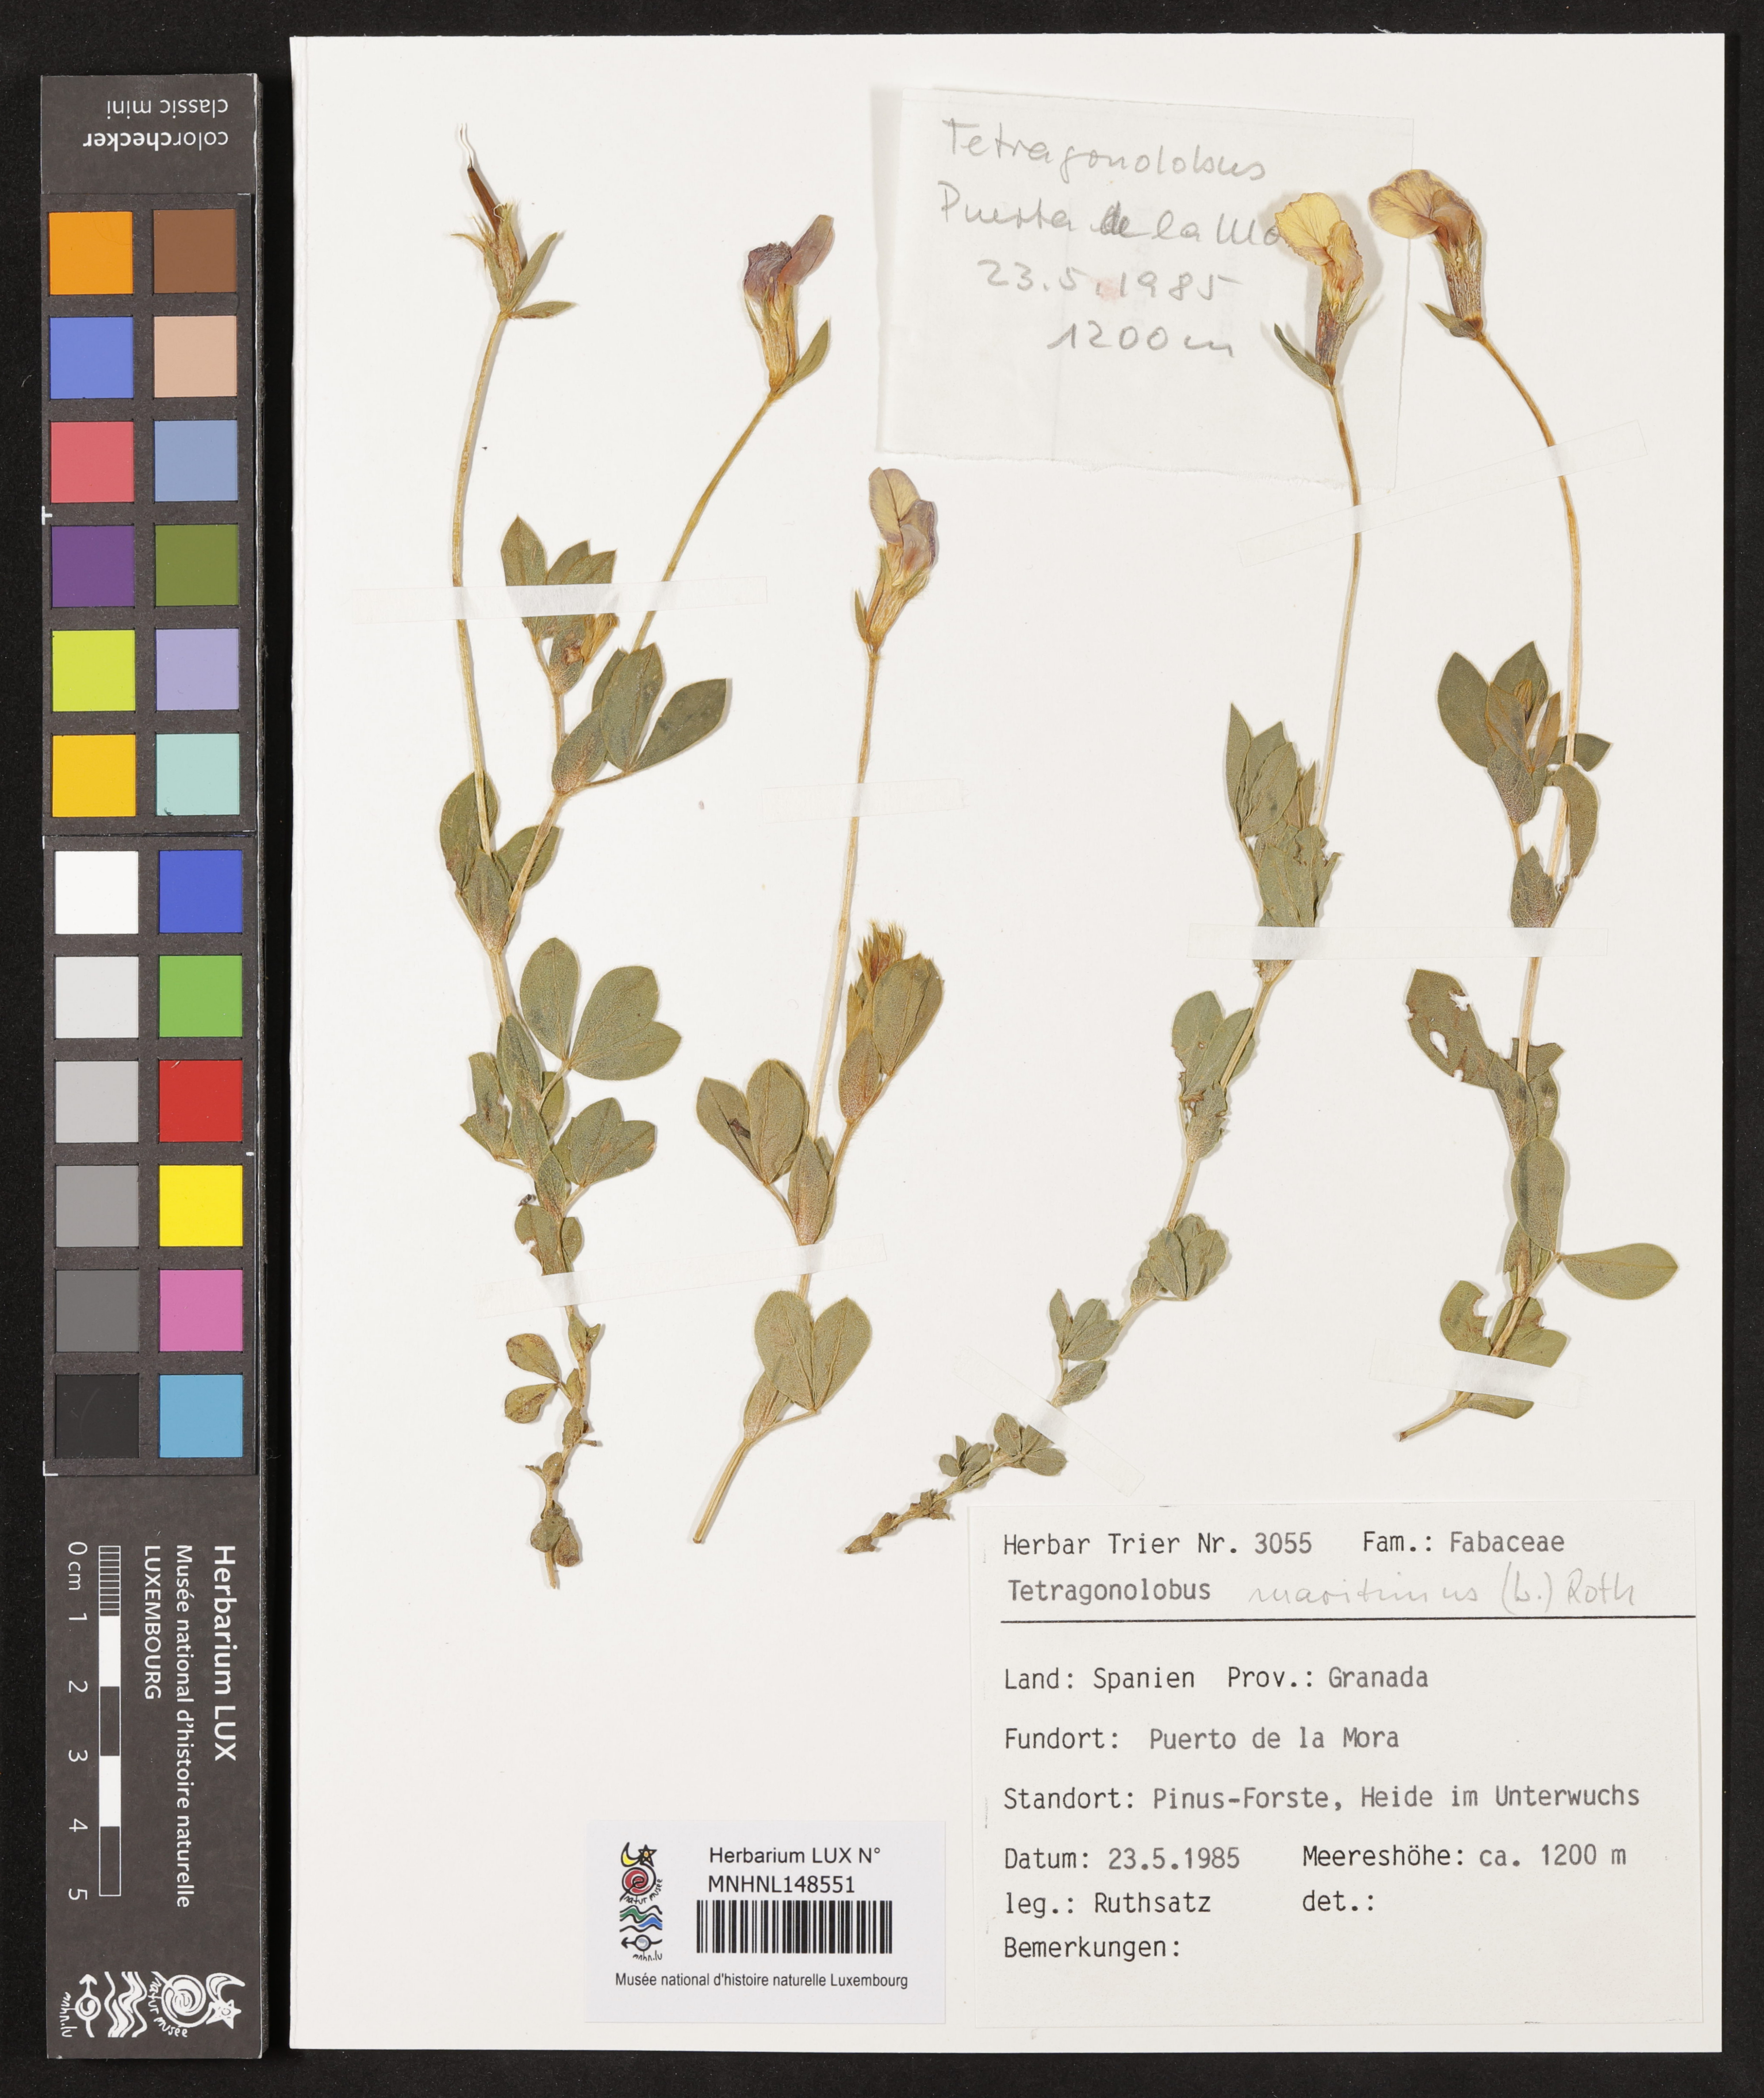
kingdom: Plantae
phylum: Tracheophyta
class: Magnoliopsida
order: Fabales
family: Fabaceae
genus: Lotus
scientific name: Lotus maritimus
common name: Dragon's-teeth
